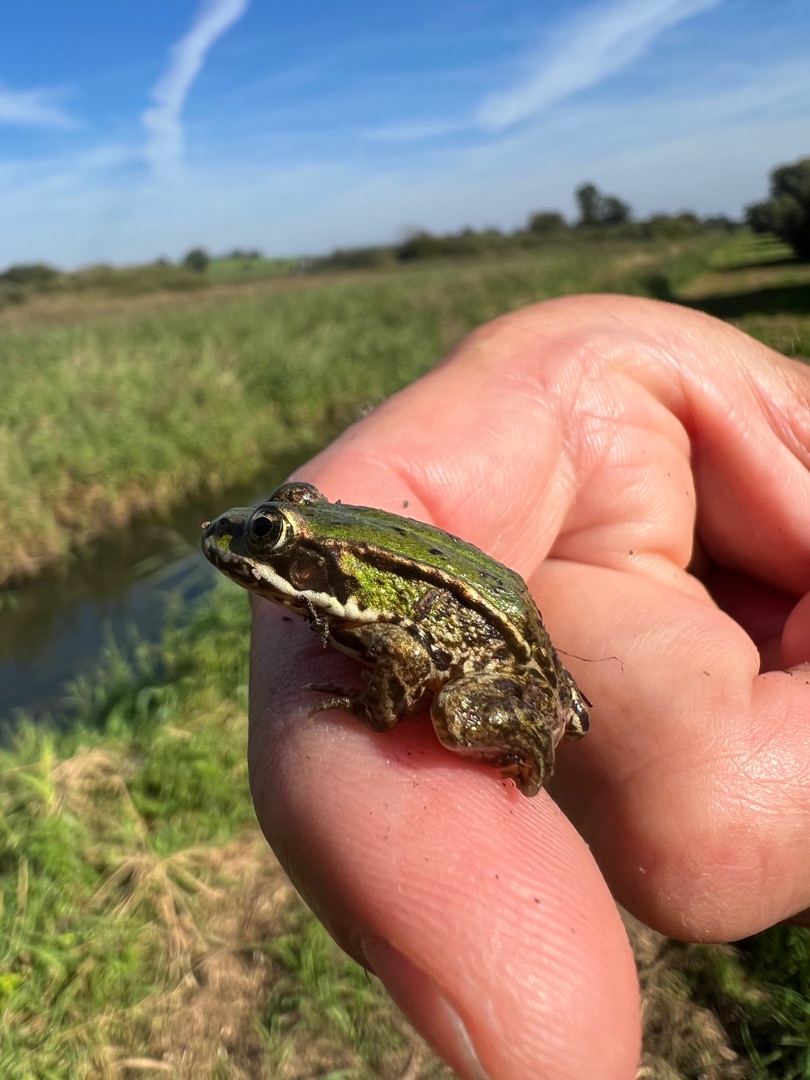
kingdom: Animalia
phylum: Chordata
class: Amphibia
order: Anura
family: Ranidae
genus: Pelophylax
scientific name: Pelophylax lessonae
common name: Grøn frø
